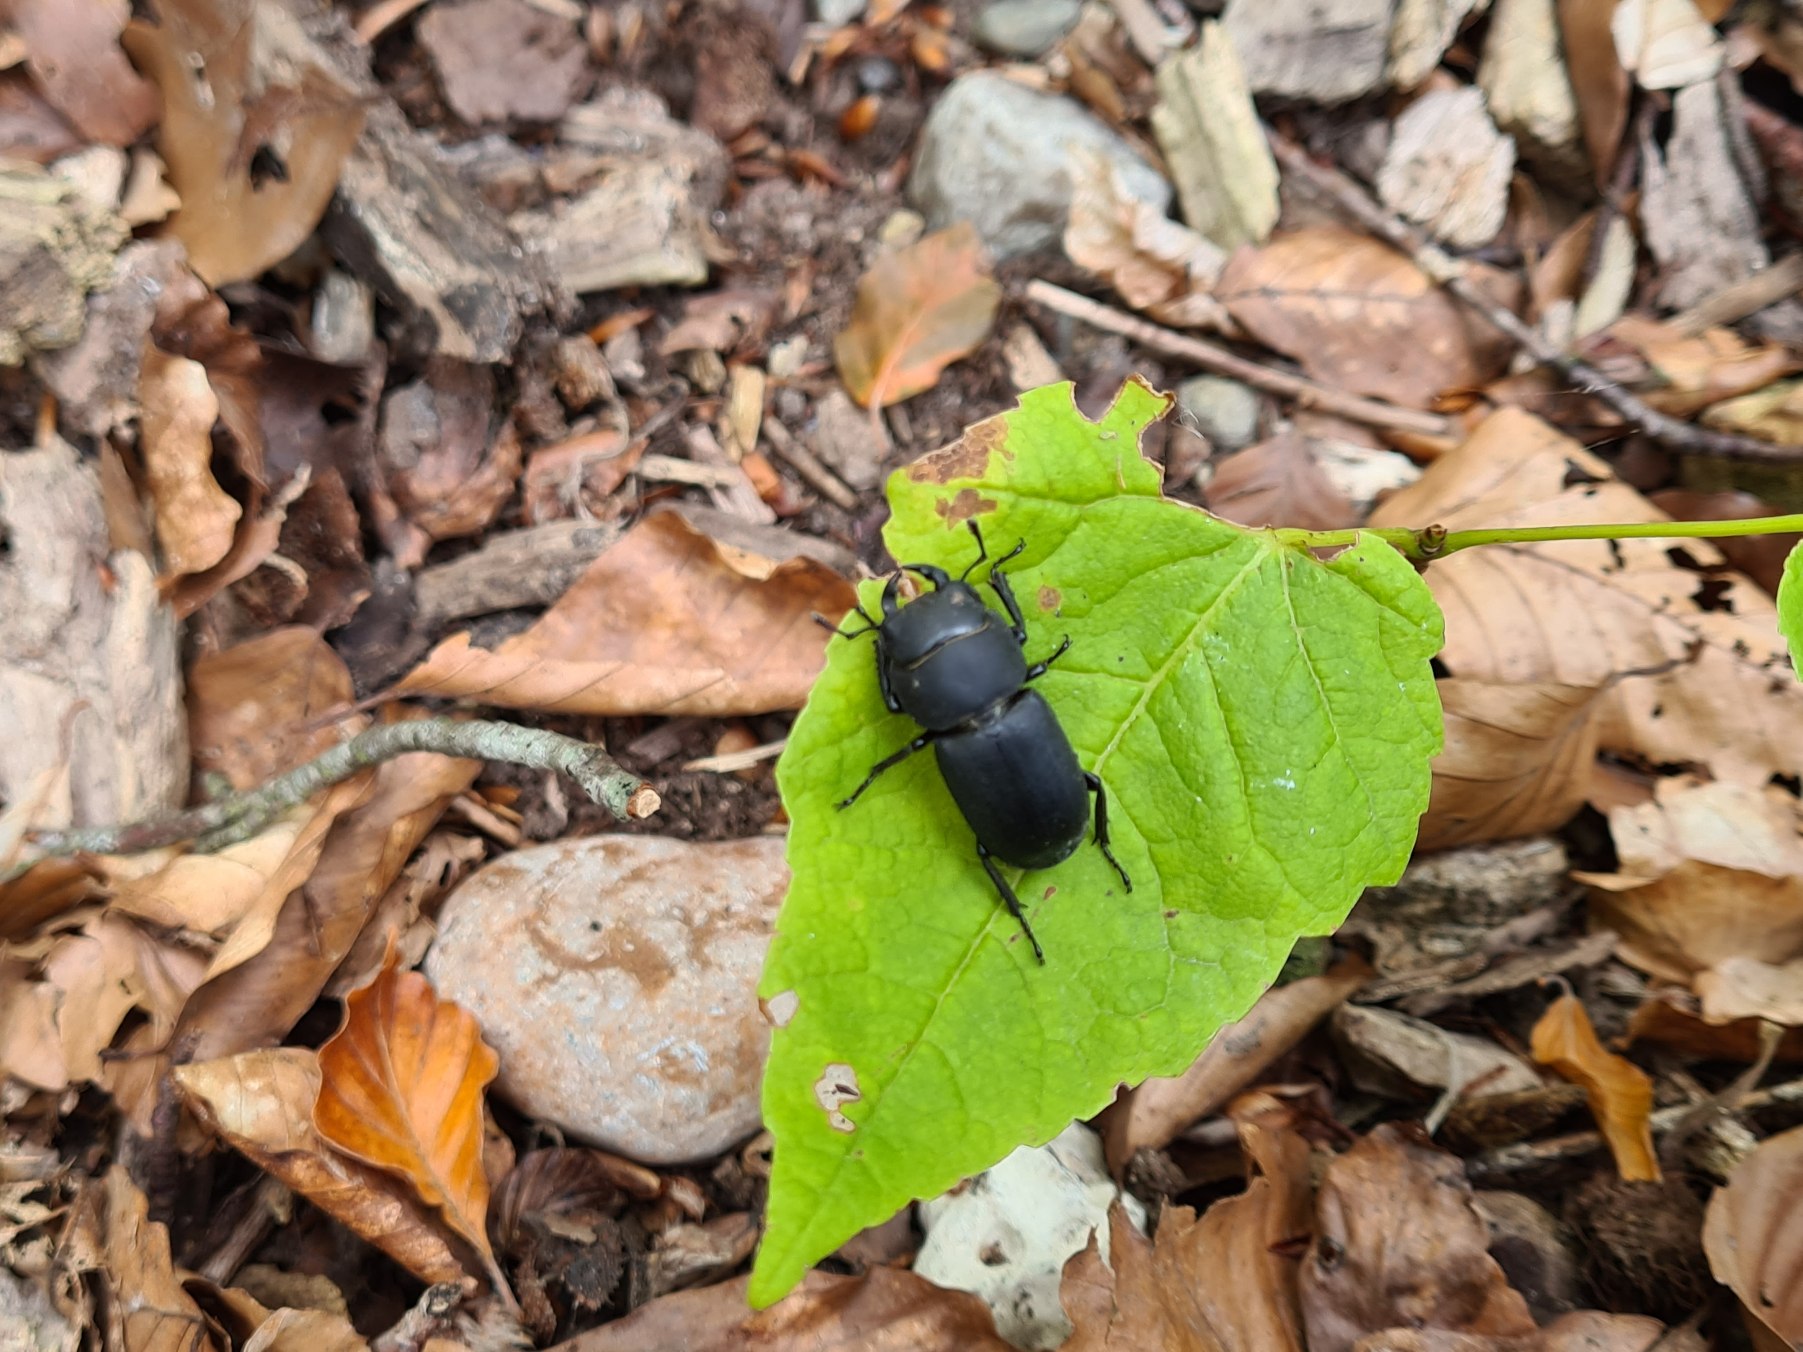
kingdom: Animalia
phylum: Arthropoda
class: Insecta
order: Coleoptera
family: Lucanidae
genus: Dorcus
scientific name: Dorcus parallelipipedus
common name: Bøghjort
